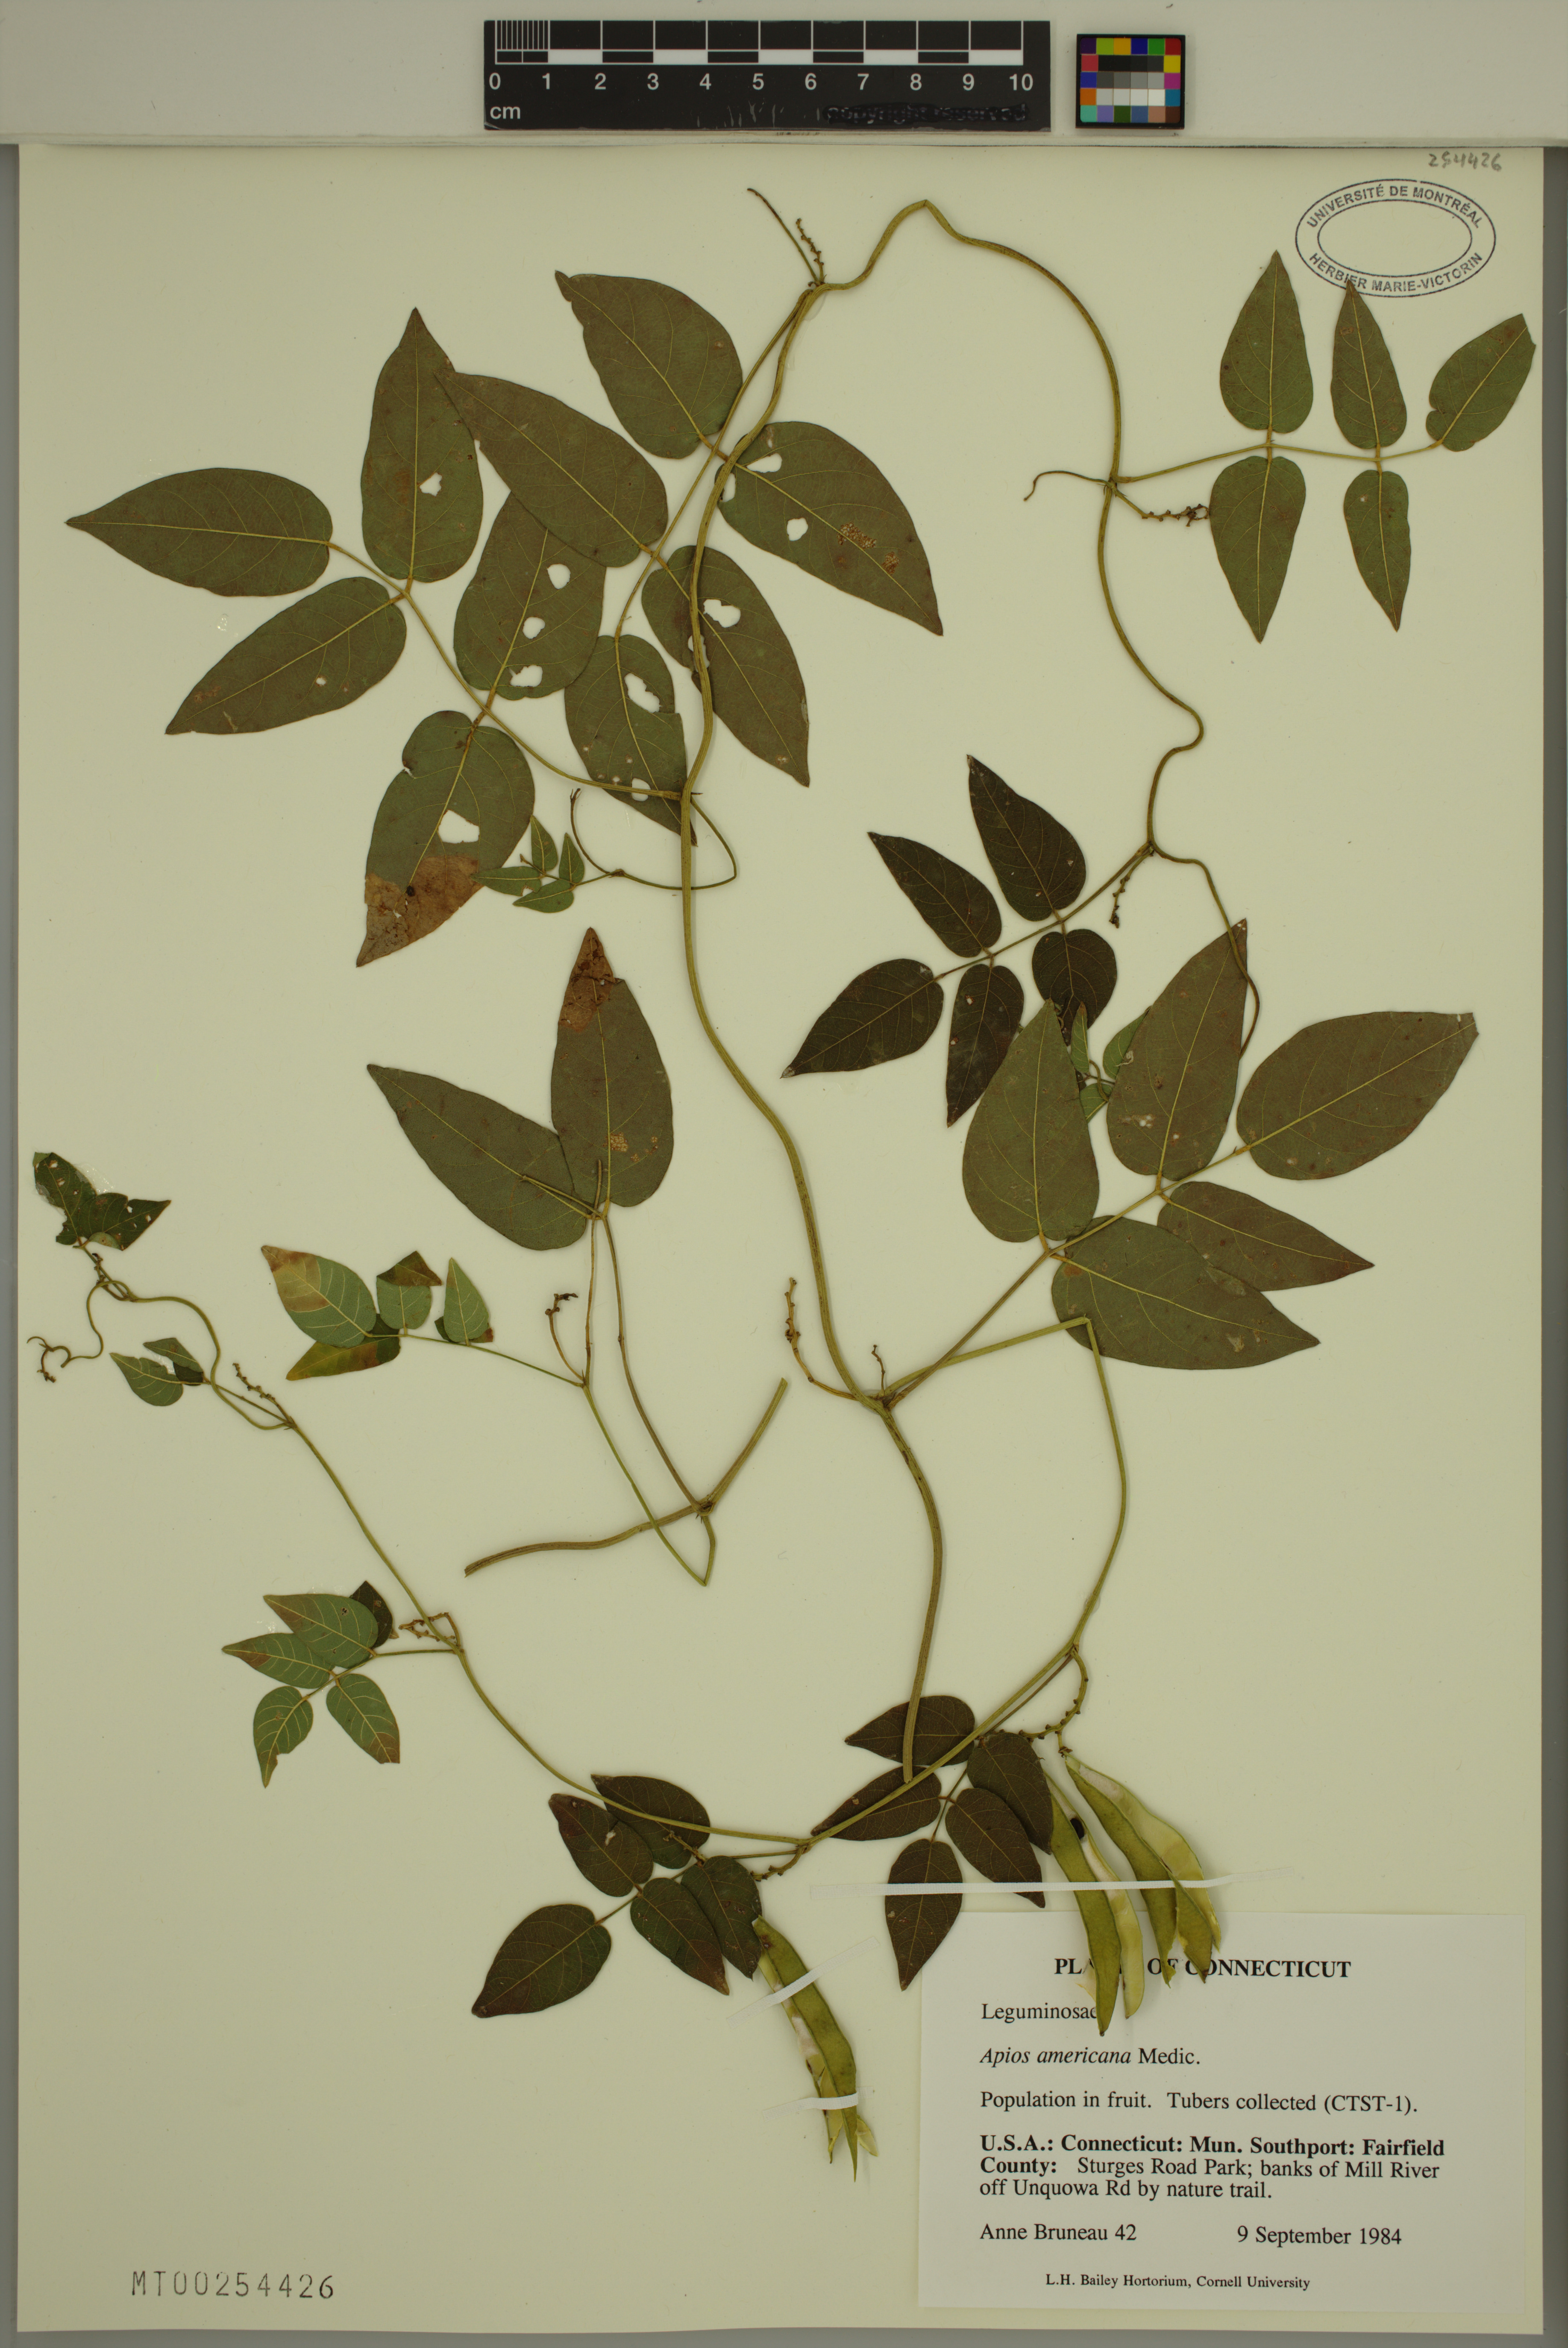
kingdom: Plantae
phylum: Tracheophyta
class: Magnoliopsida
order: Fabales
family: Fabaceae
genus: Apios
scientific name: Apios americana
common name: American potato-bean
